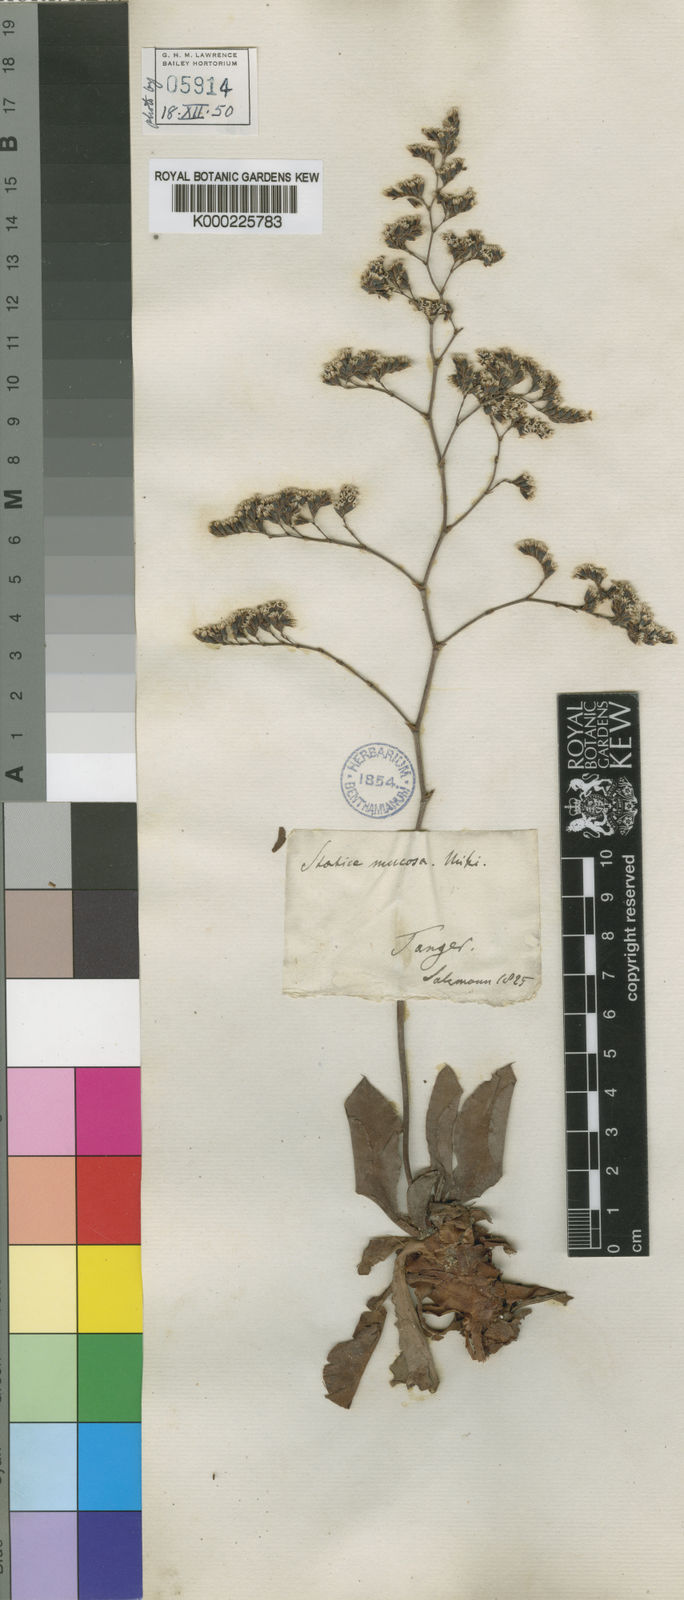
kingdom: Plantae
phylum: Tracheophyta
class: Magnoliopsida
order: Caryophyllales
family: Plumbaginaceae
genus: Limonium
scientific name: Limonium ovalifolium
